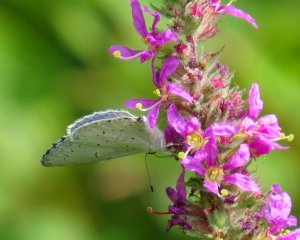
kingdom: Animalia
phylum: Arthropoda
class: Insecta
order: Lepidoptera
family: Lycaenidae
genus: Cyaniris
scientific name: Cyaniris neglecta
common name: Summer Azure
